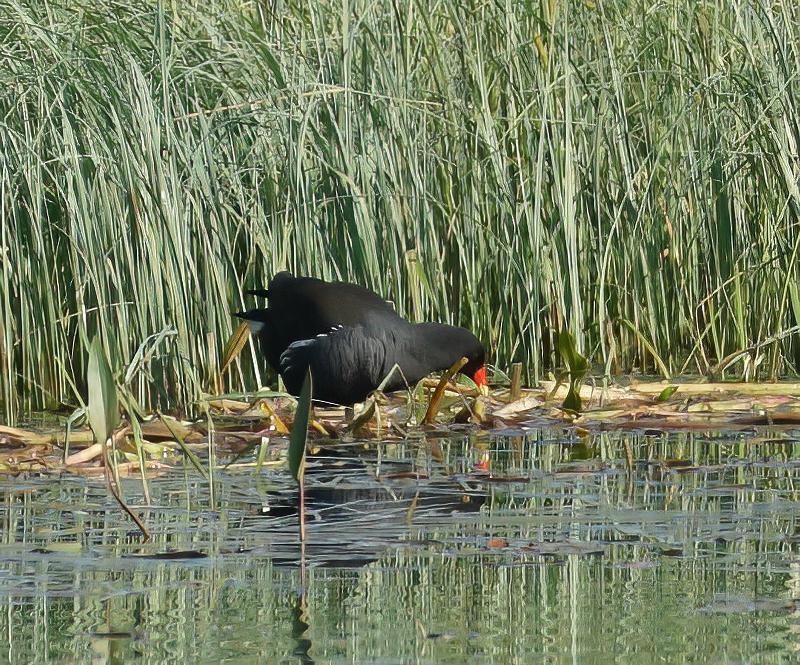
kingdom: Animalia
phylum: Chordata
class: Aves
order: Gruiformes
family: Rallidae
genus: Gallinula
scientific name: Gallinula chloropus
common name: Grønbenet rørhøne
